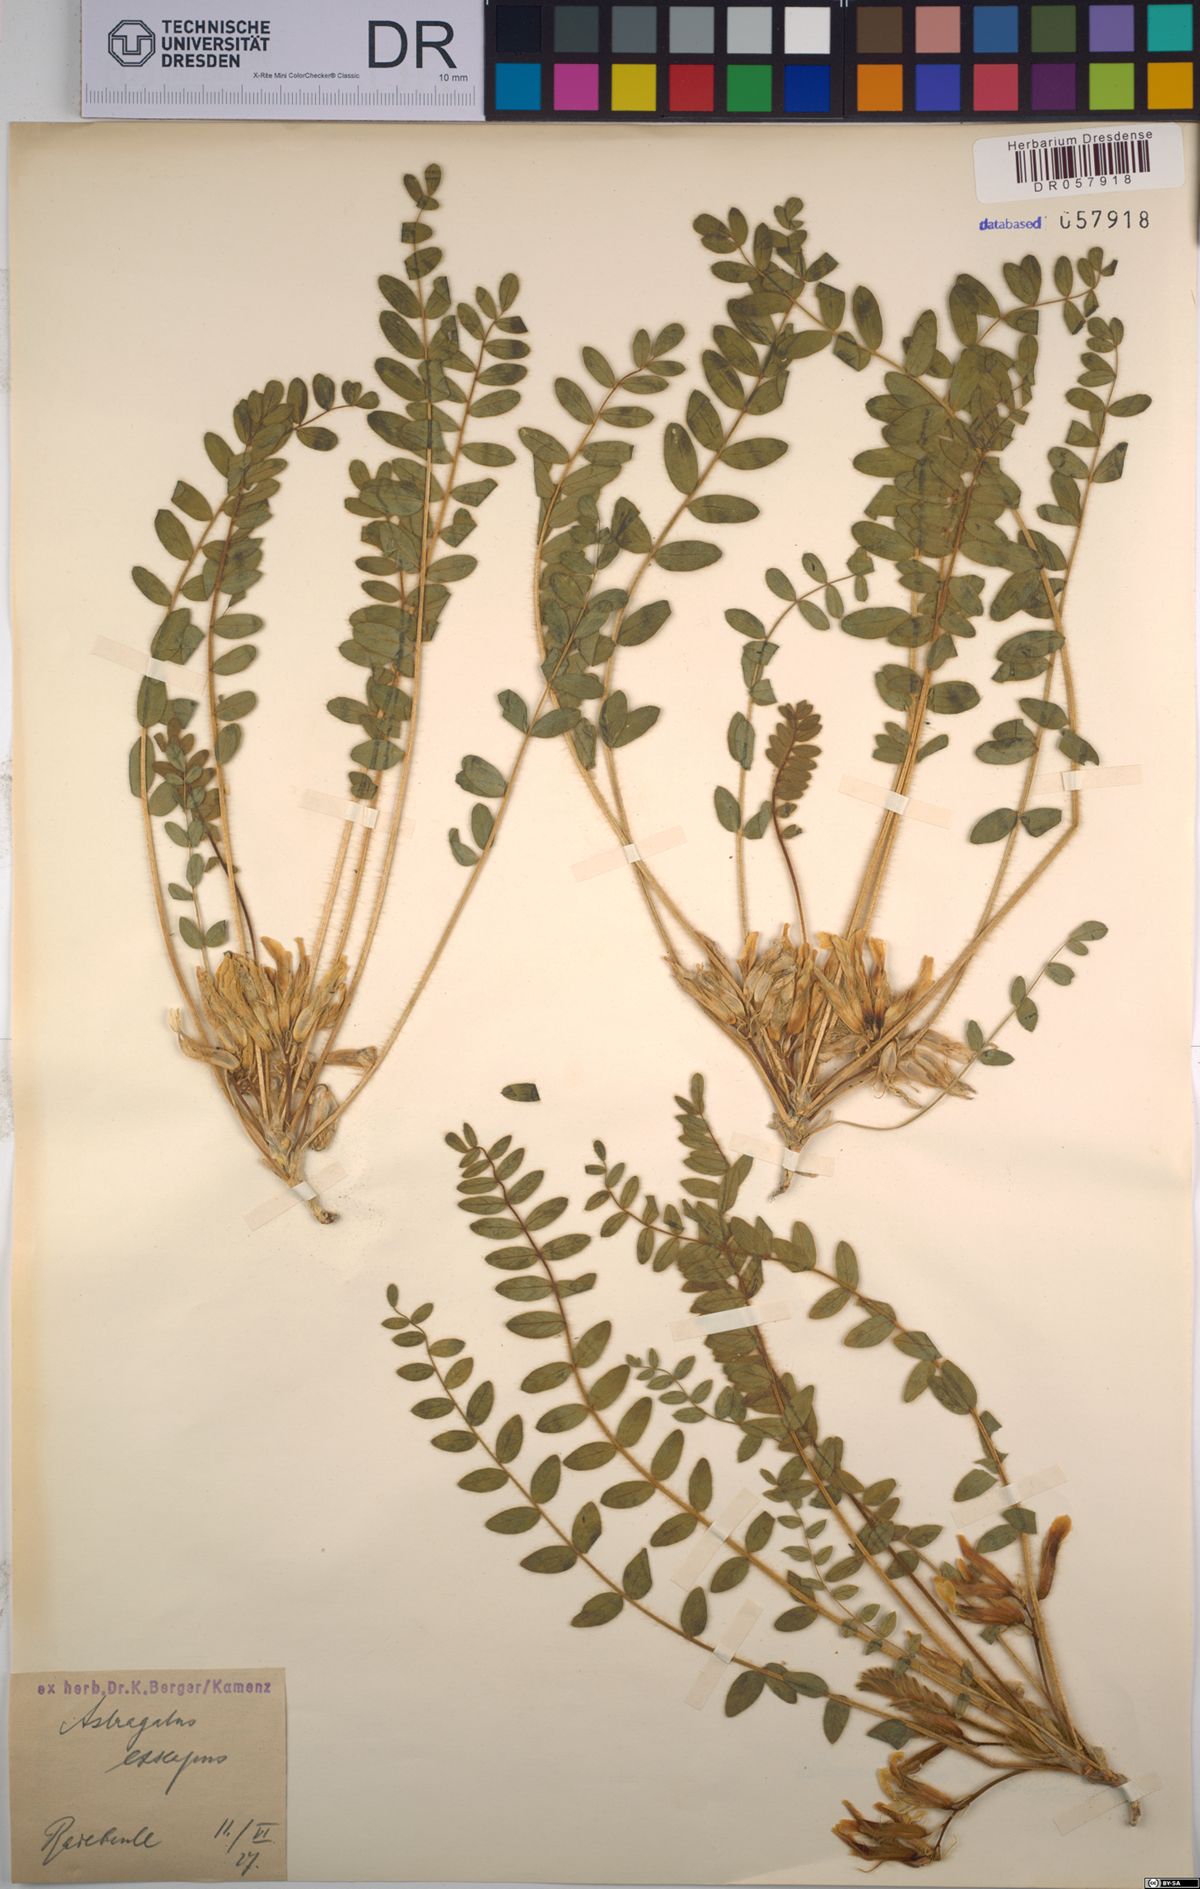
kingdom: Plantae
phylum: Tracheophyta
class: Magnoliopsida
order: Fabales
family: Fabaceae
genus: Astragalus
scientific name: Astragalus exscapus
